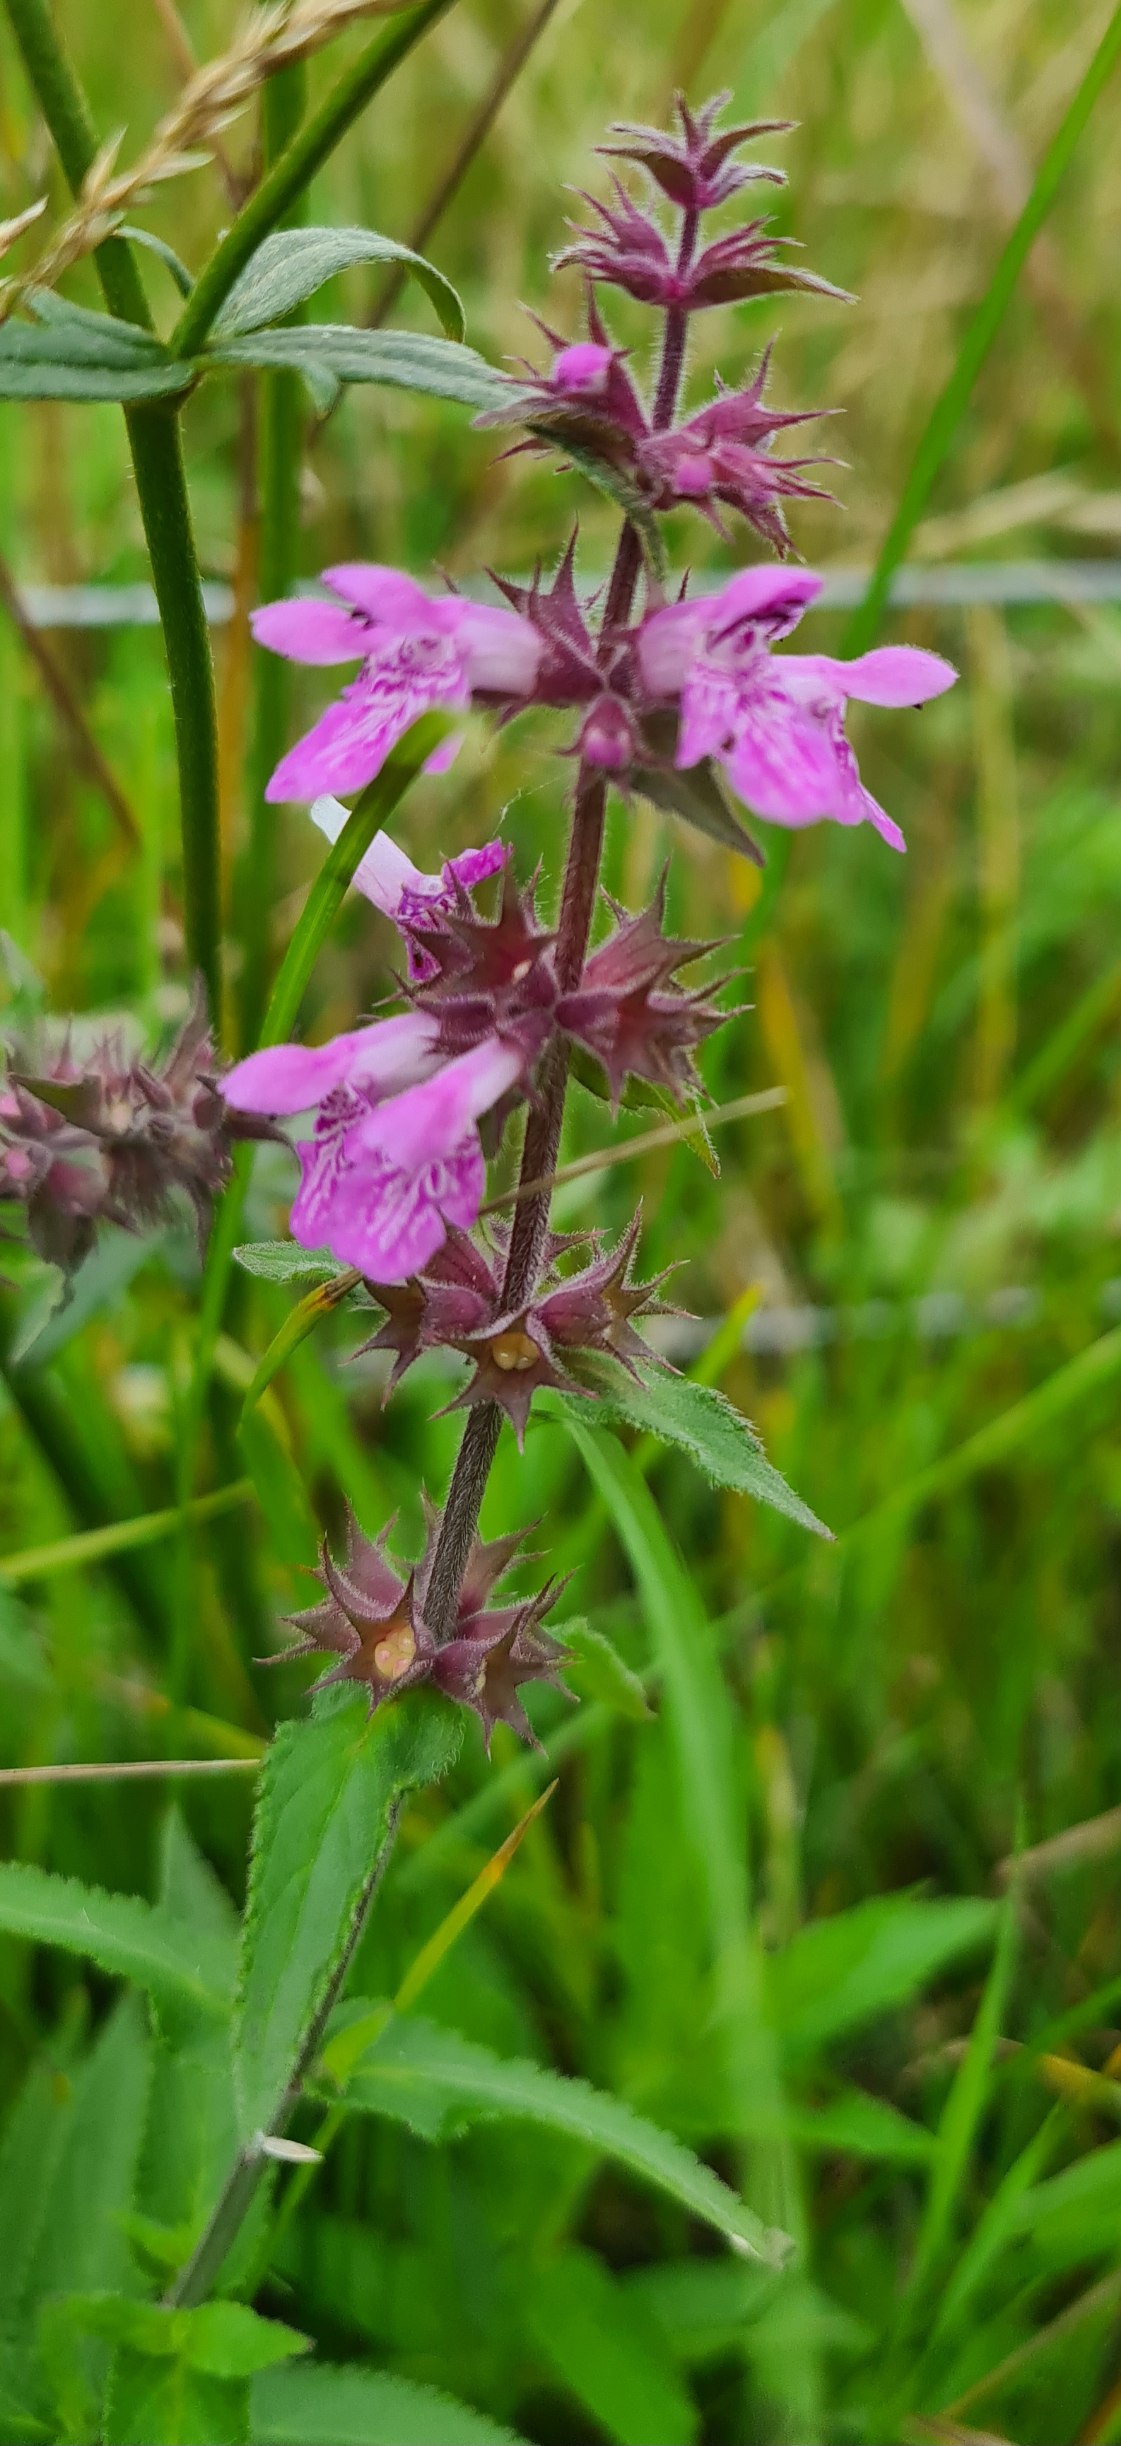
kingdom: Plantae
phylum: Tracheophyta
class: Magnoliopsida
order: Lamiales
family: Lamiaceae
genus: Stachys
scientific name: Stachys palustris
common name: Kær-galtetand
